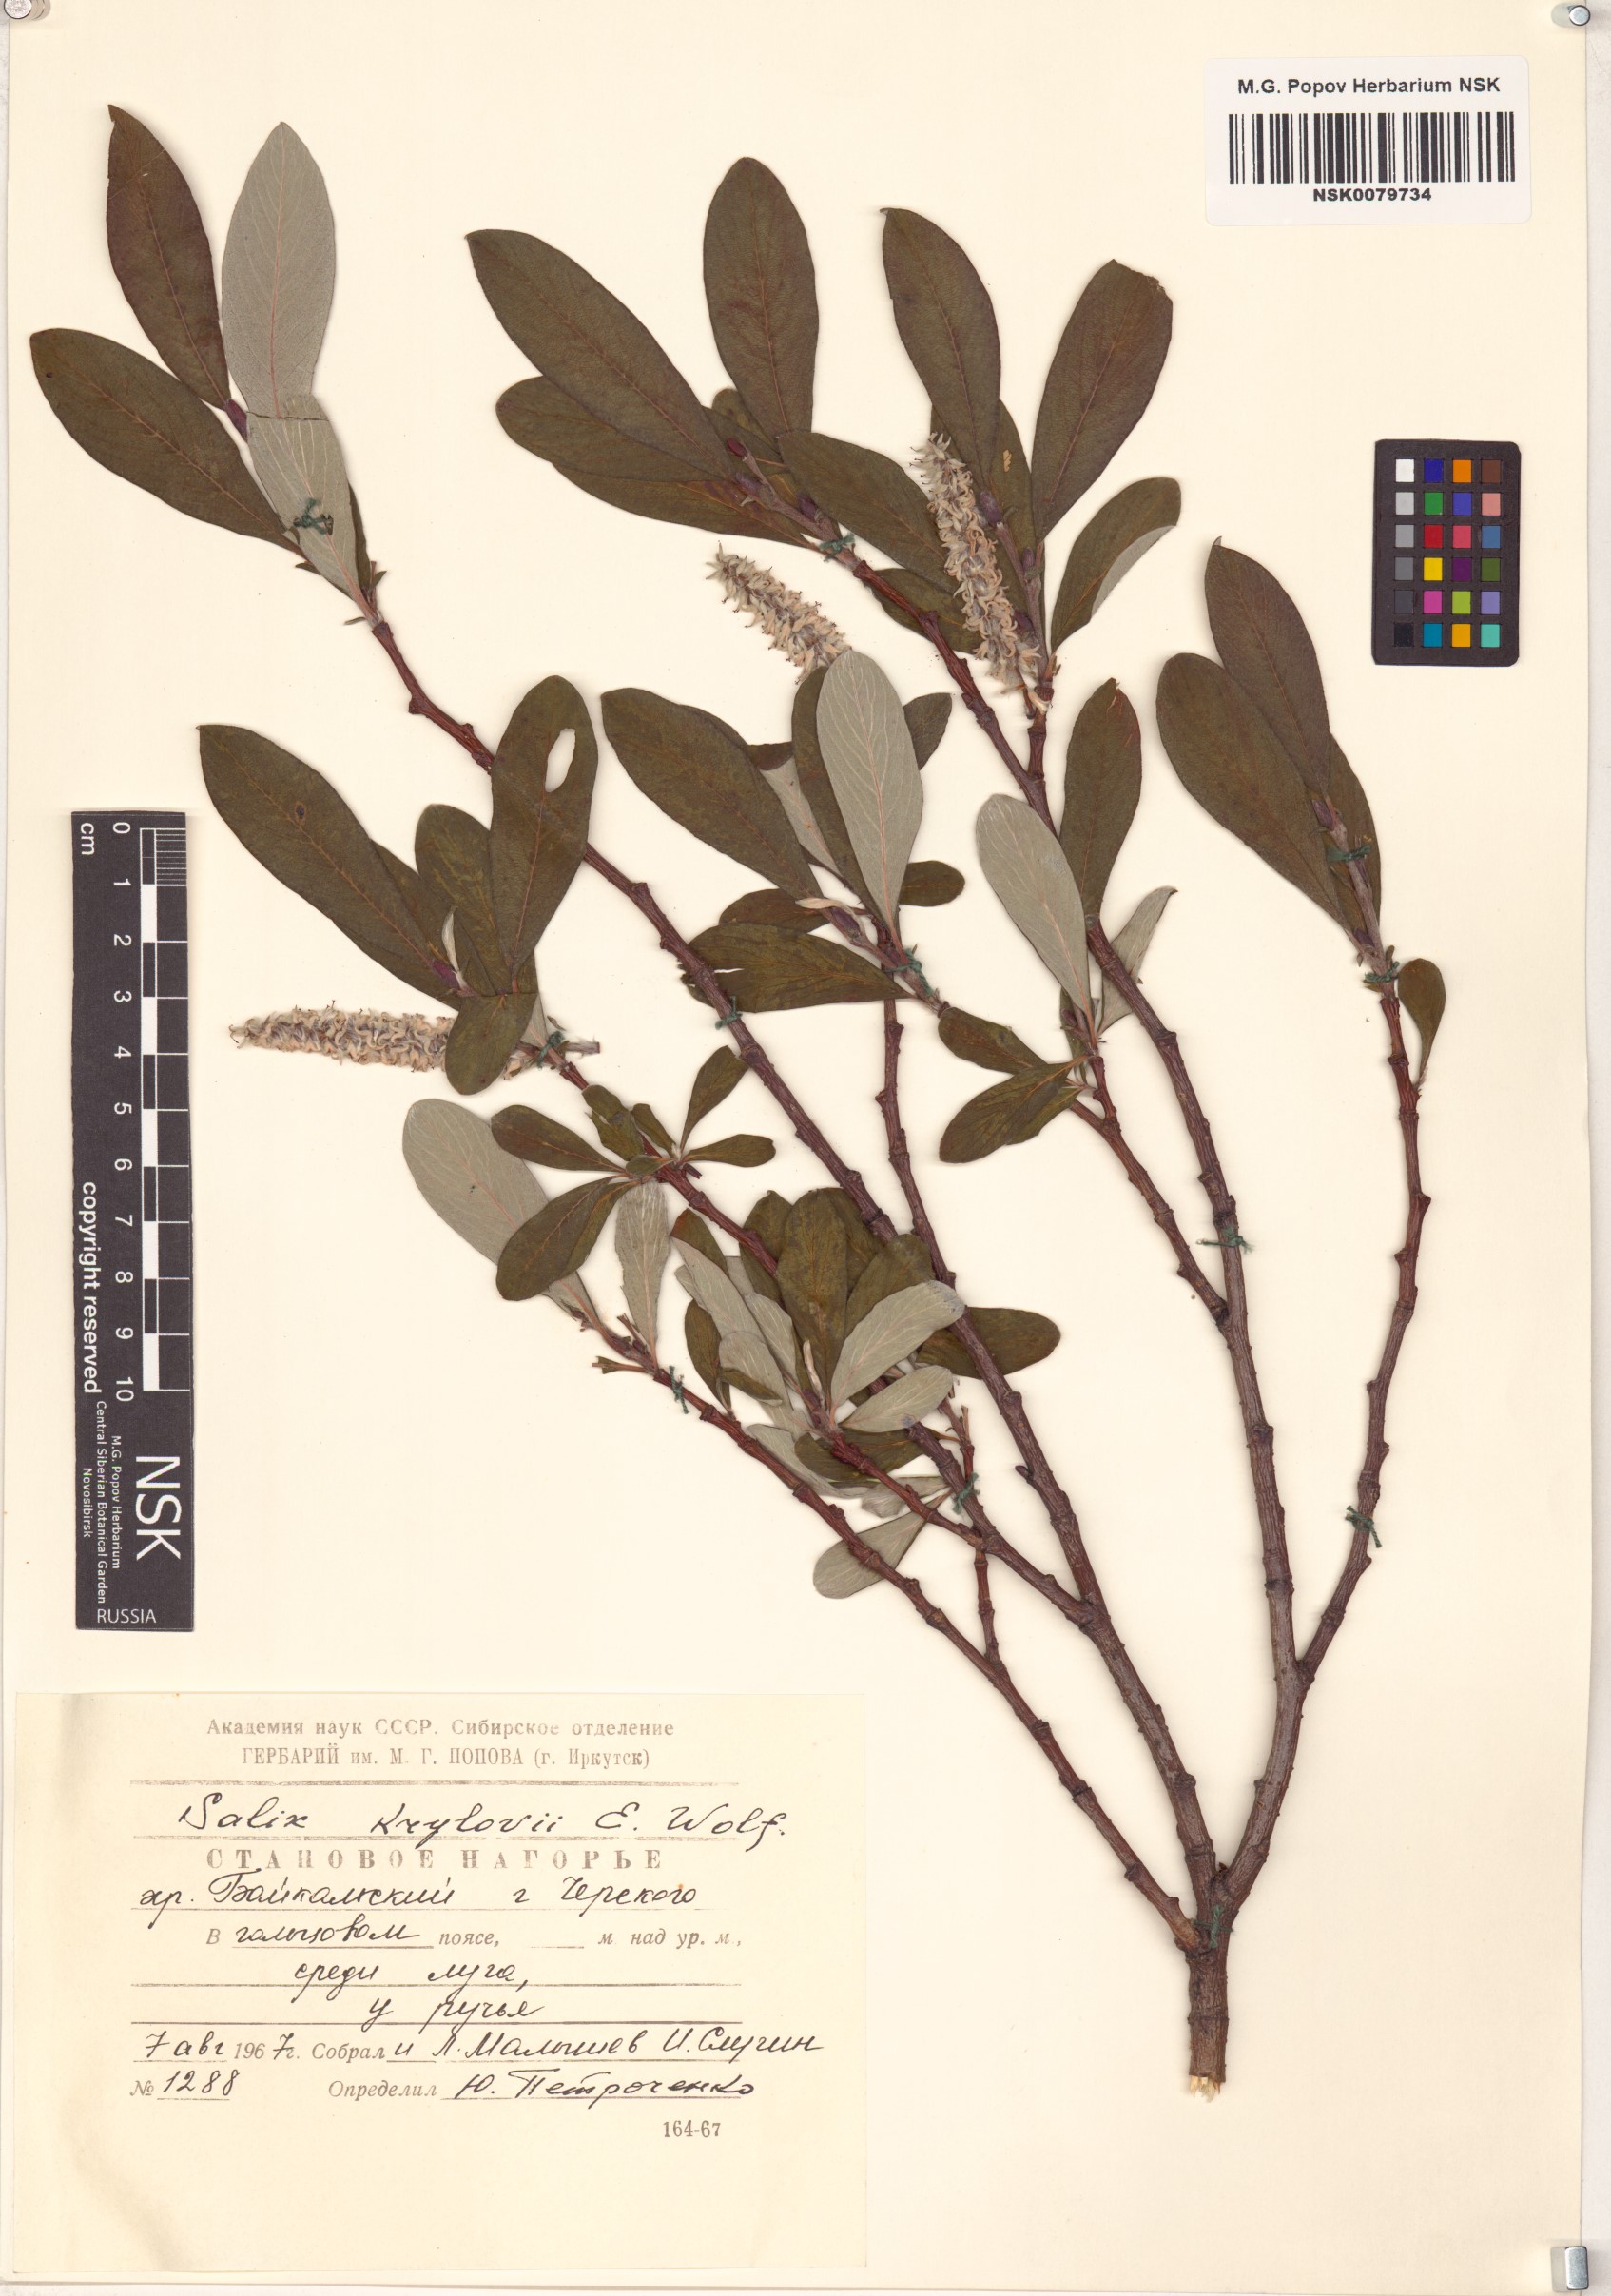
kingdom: Plantae
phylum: Tracheophyta
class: Magnoliopsida
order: Malpighiales
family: Salicaceae
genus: Salix
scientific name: Salix krylovii
